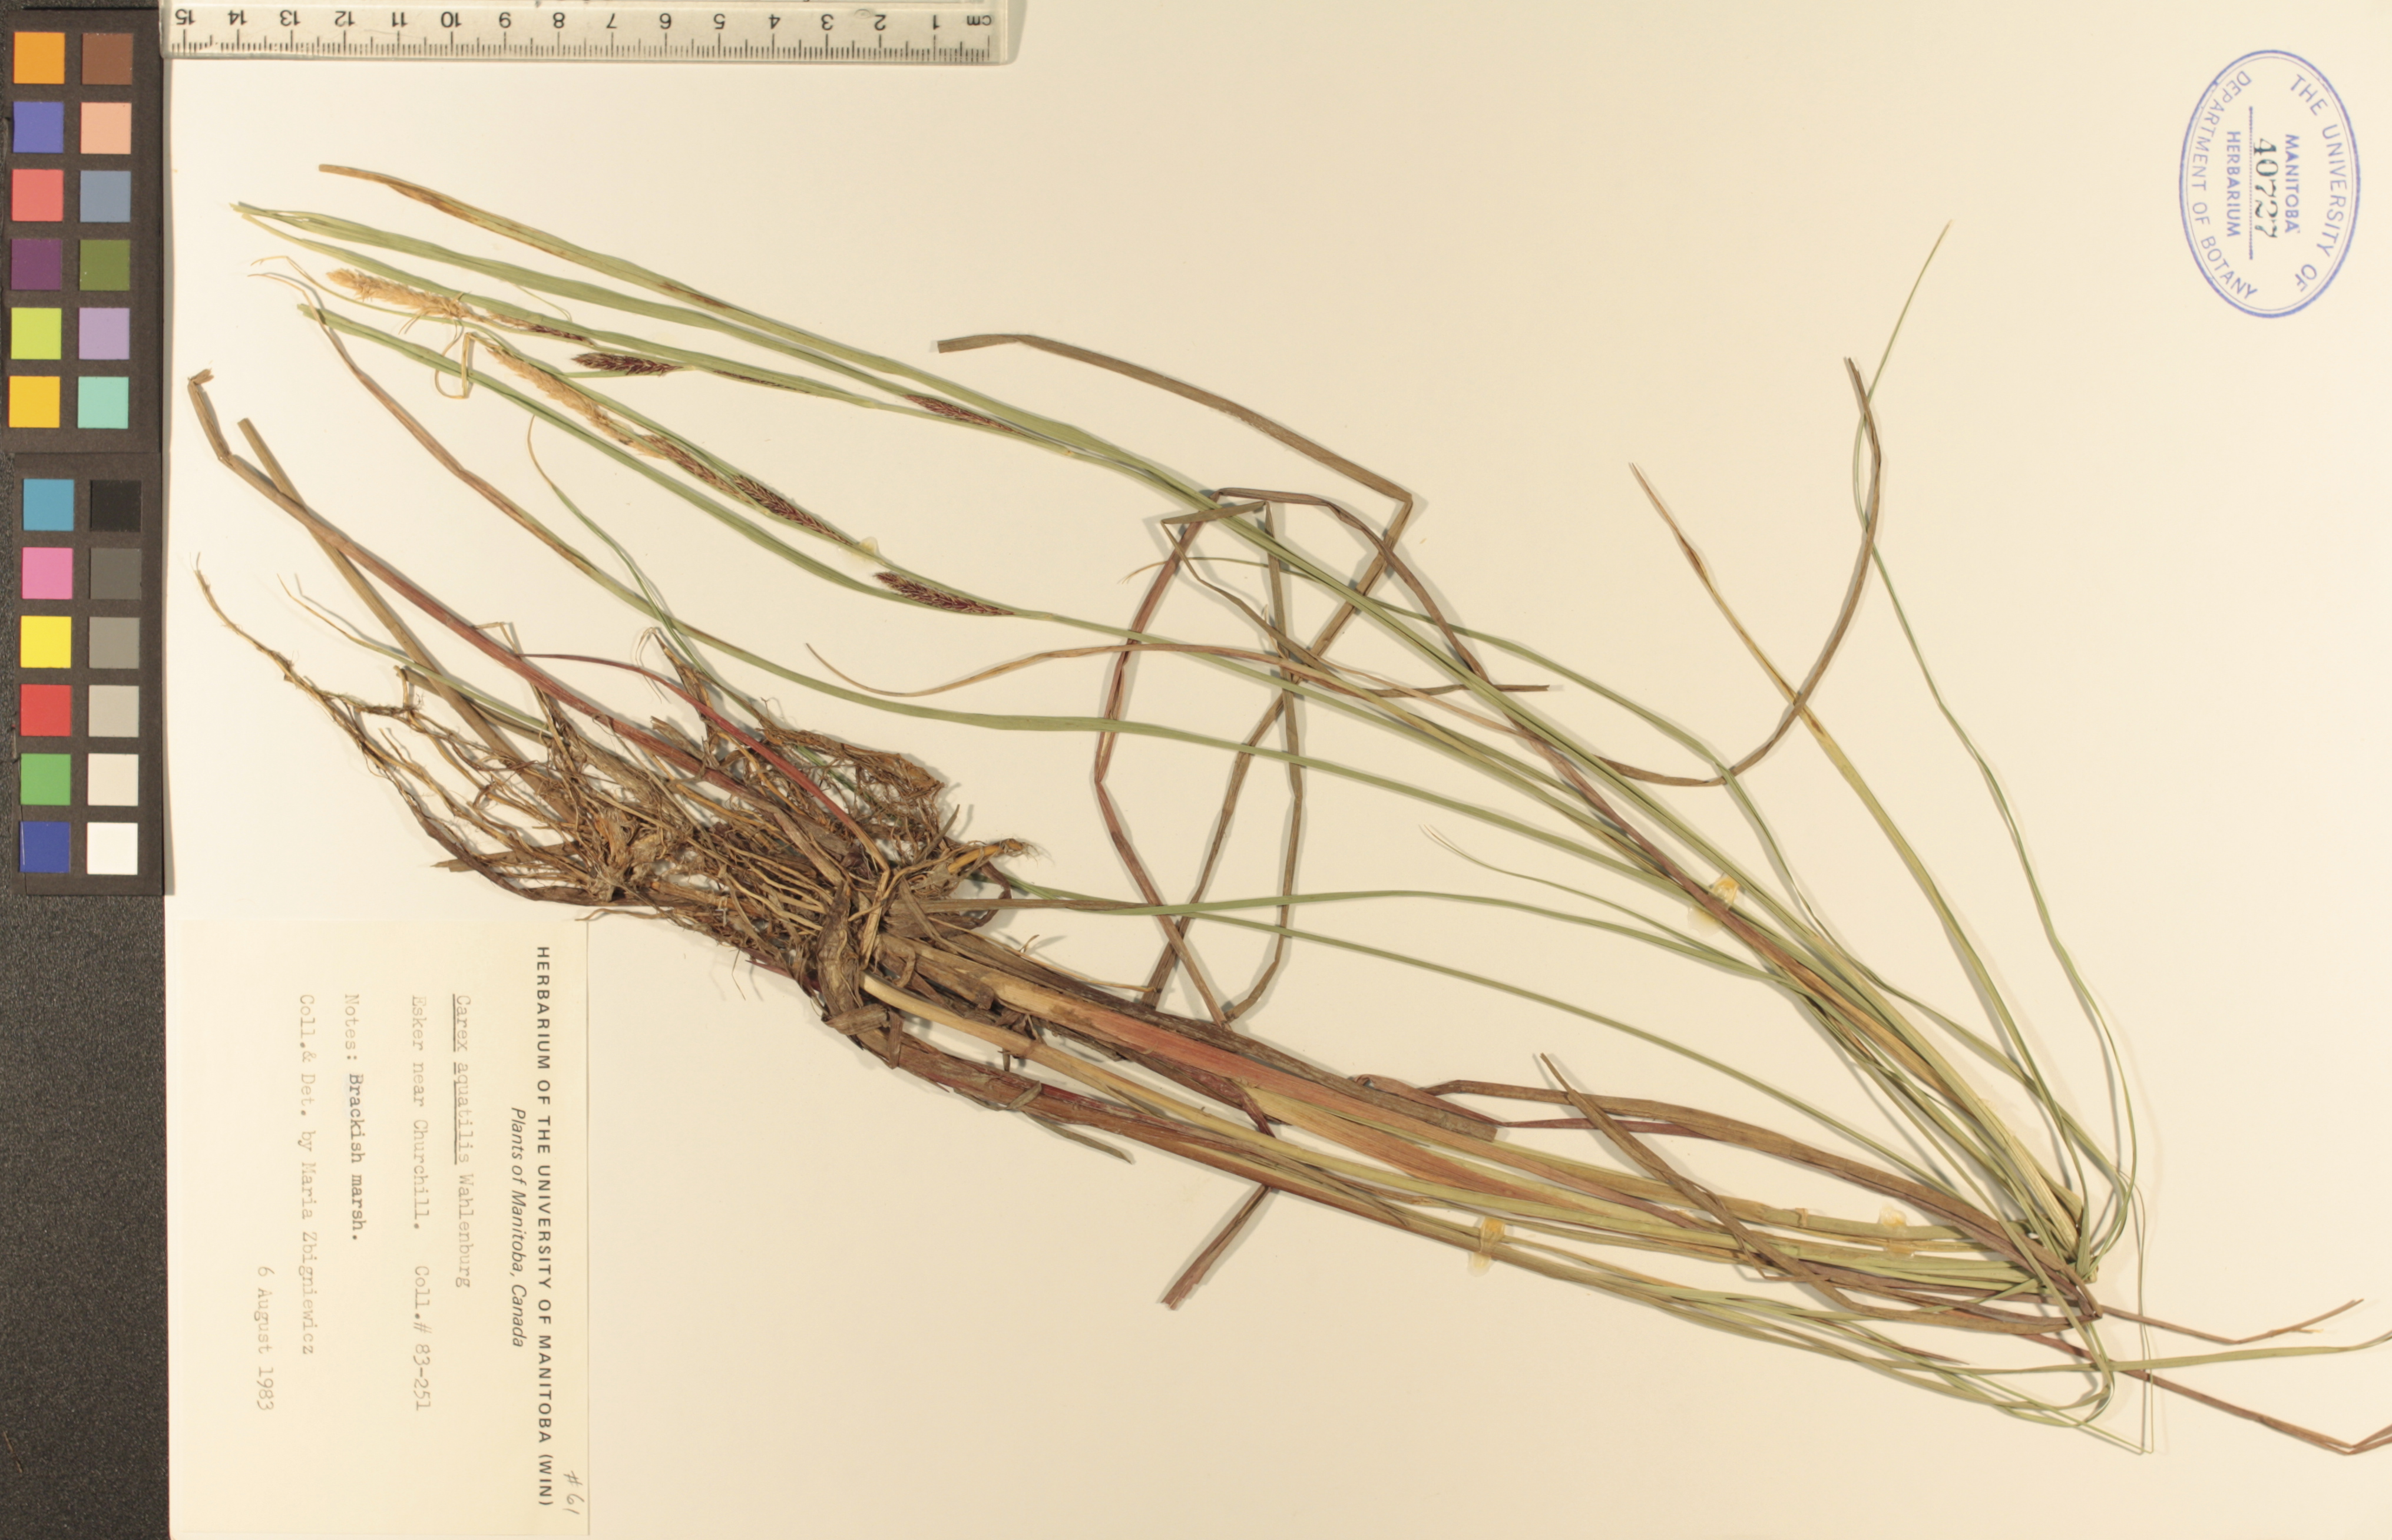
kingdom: Plantae
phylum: Tracheophyta
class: Liliopsida
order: Poales
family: Cyperaceae
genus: Carex
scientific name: Carex aquatilis
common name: Water sedge
